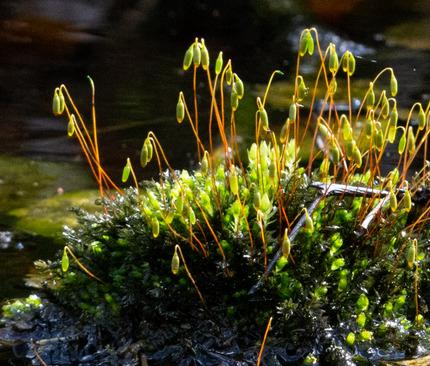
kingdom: Plantae
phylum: Bryophyta
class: Bryopsida
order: Bryales
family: Mniaceae
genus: Mnium
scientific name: Mnium hornum
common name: Brunfiltet stjernemos
